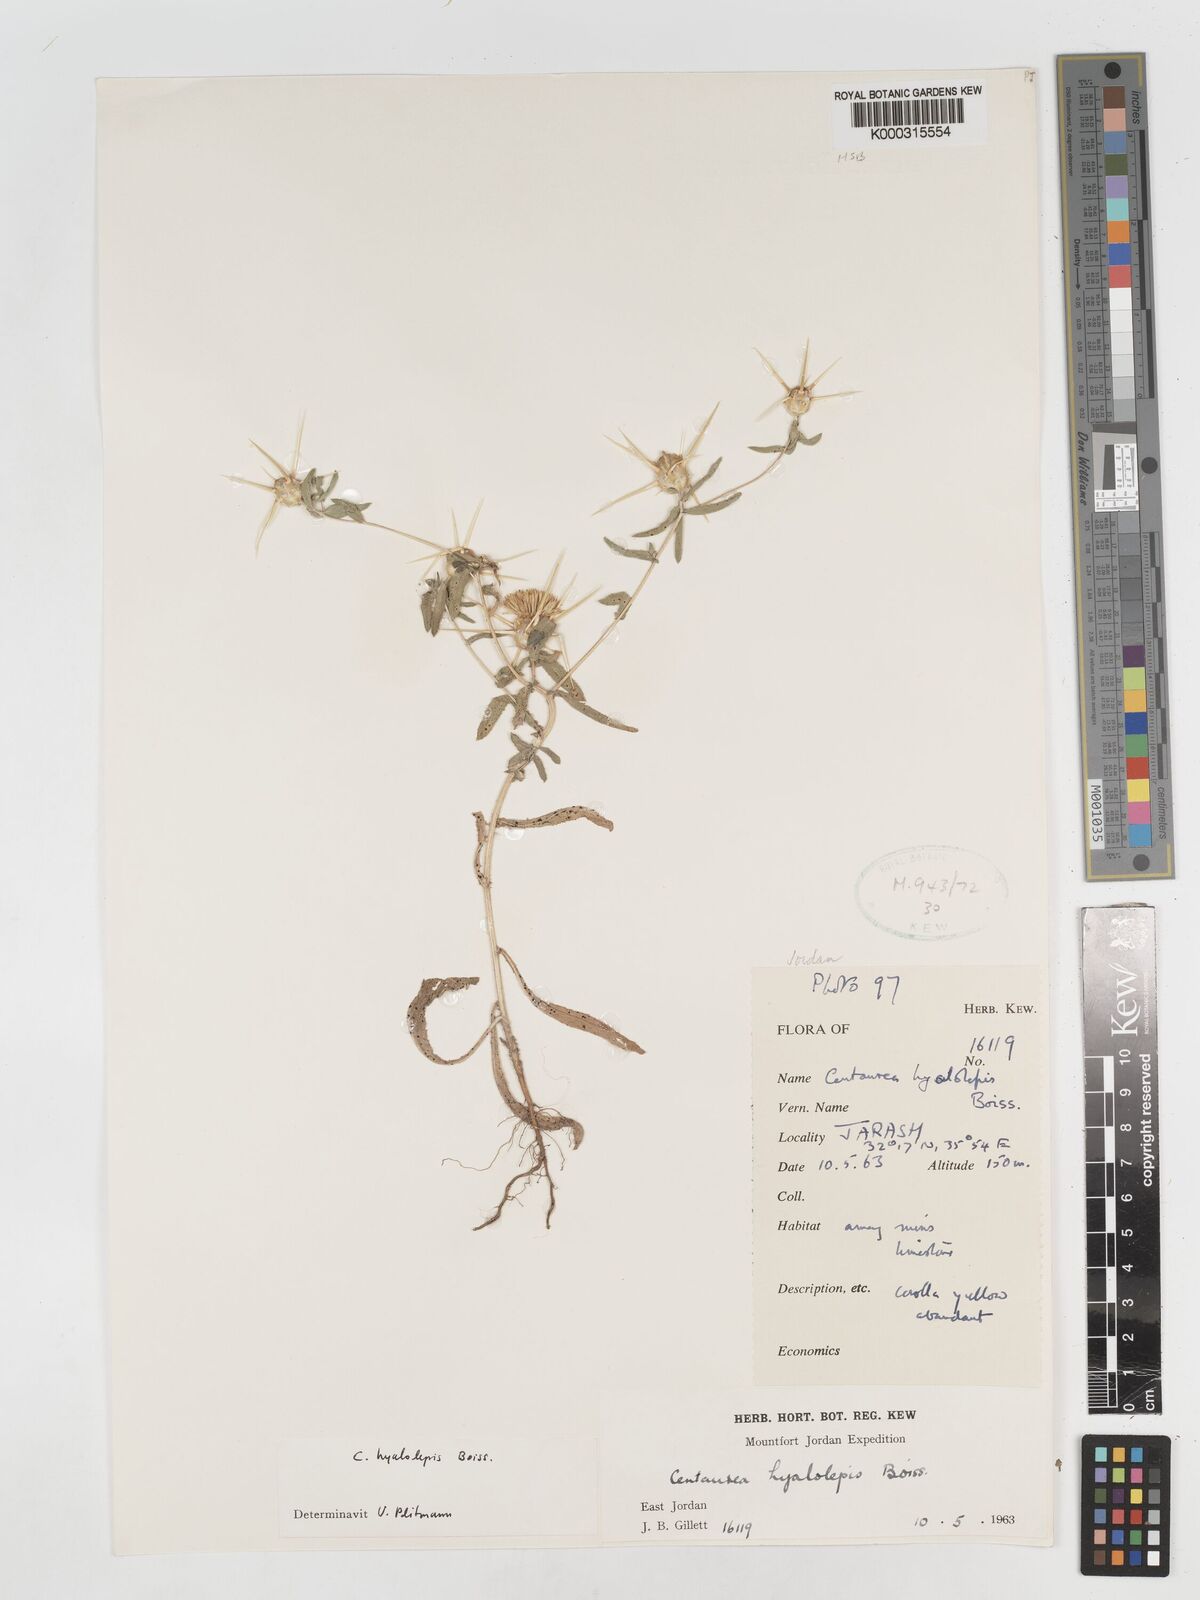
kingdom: Plantae
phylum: Tracheophyta
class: Magnoliopsida
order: Asterales
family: Asteraceae
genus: Centaurea
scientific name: Centaurea hyalolepis
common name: Eastern star-thistle
